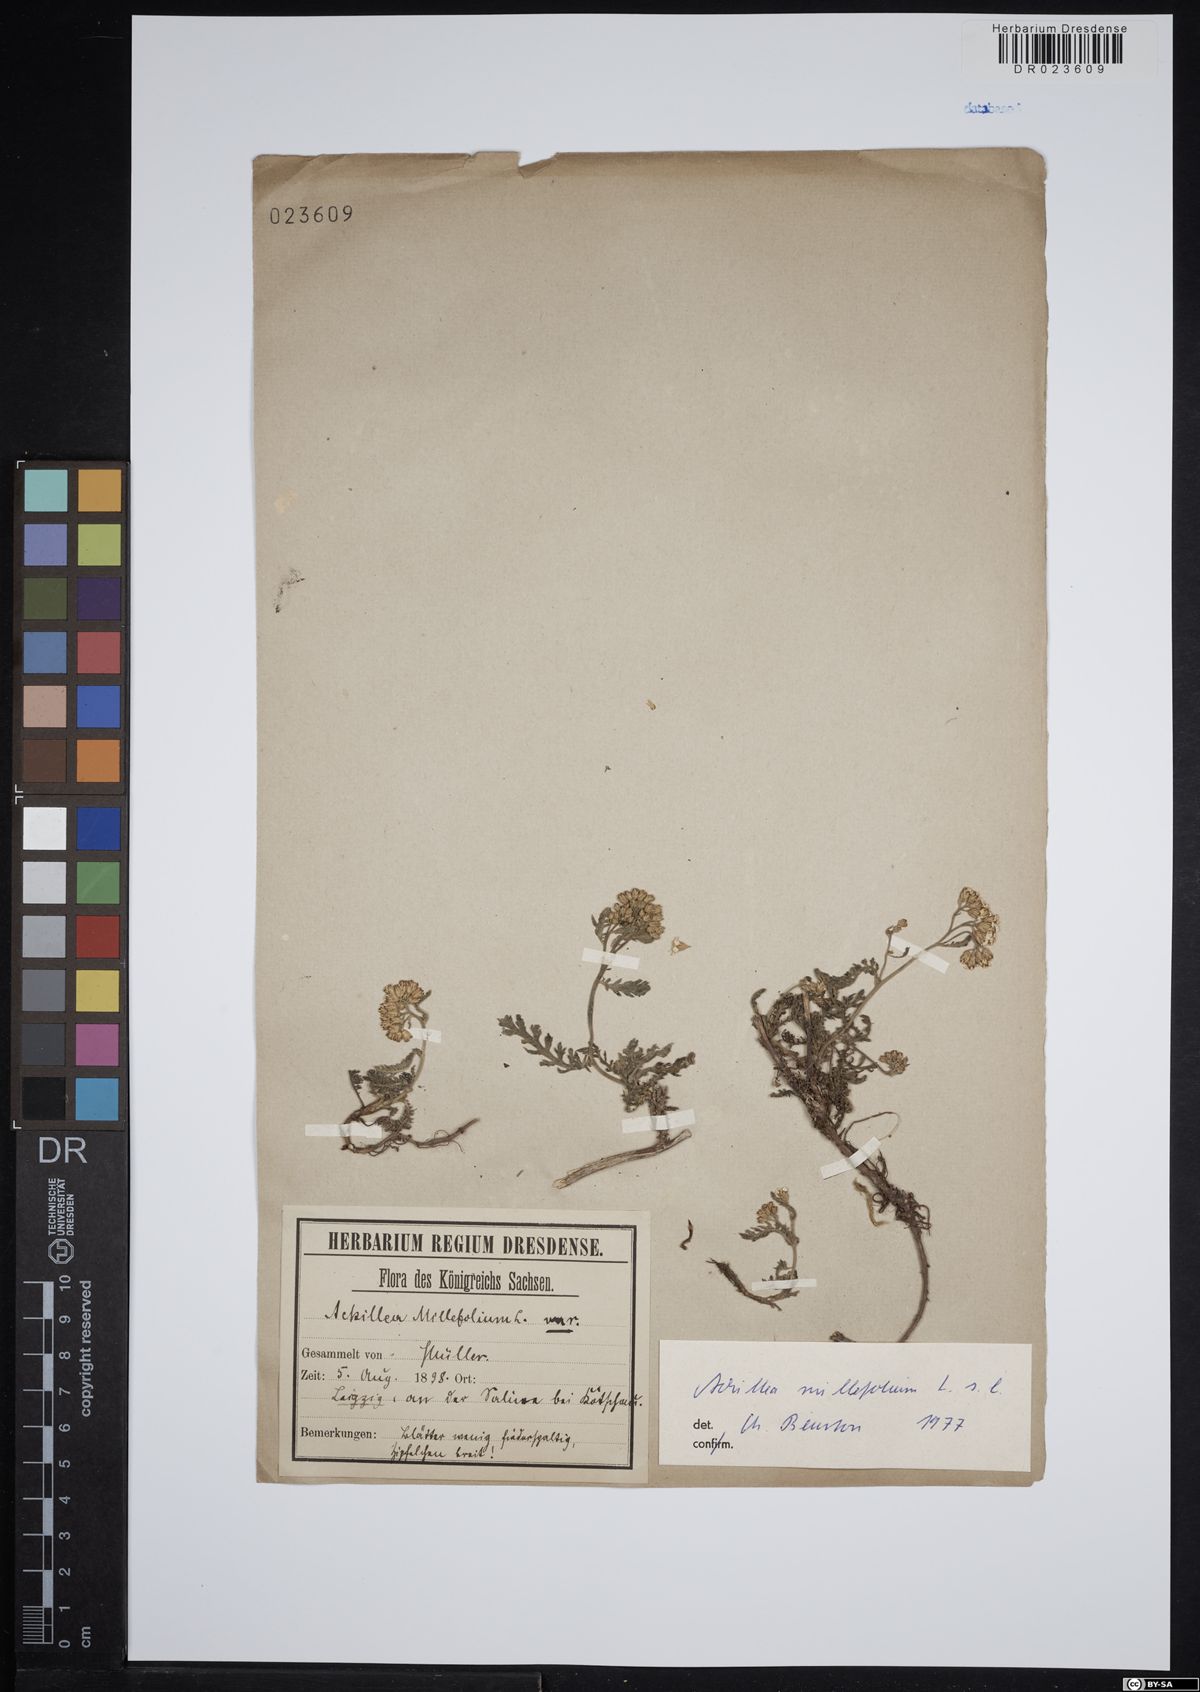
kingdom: Plantae
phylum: Tracheophyta
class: Magnoliopsida
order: Asterales
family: Asteraceae
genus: Achillea
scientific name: Achillea millefolium
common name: Yarrow
